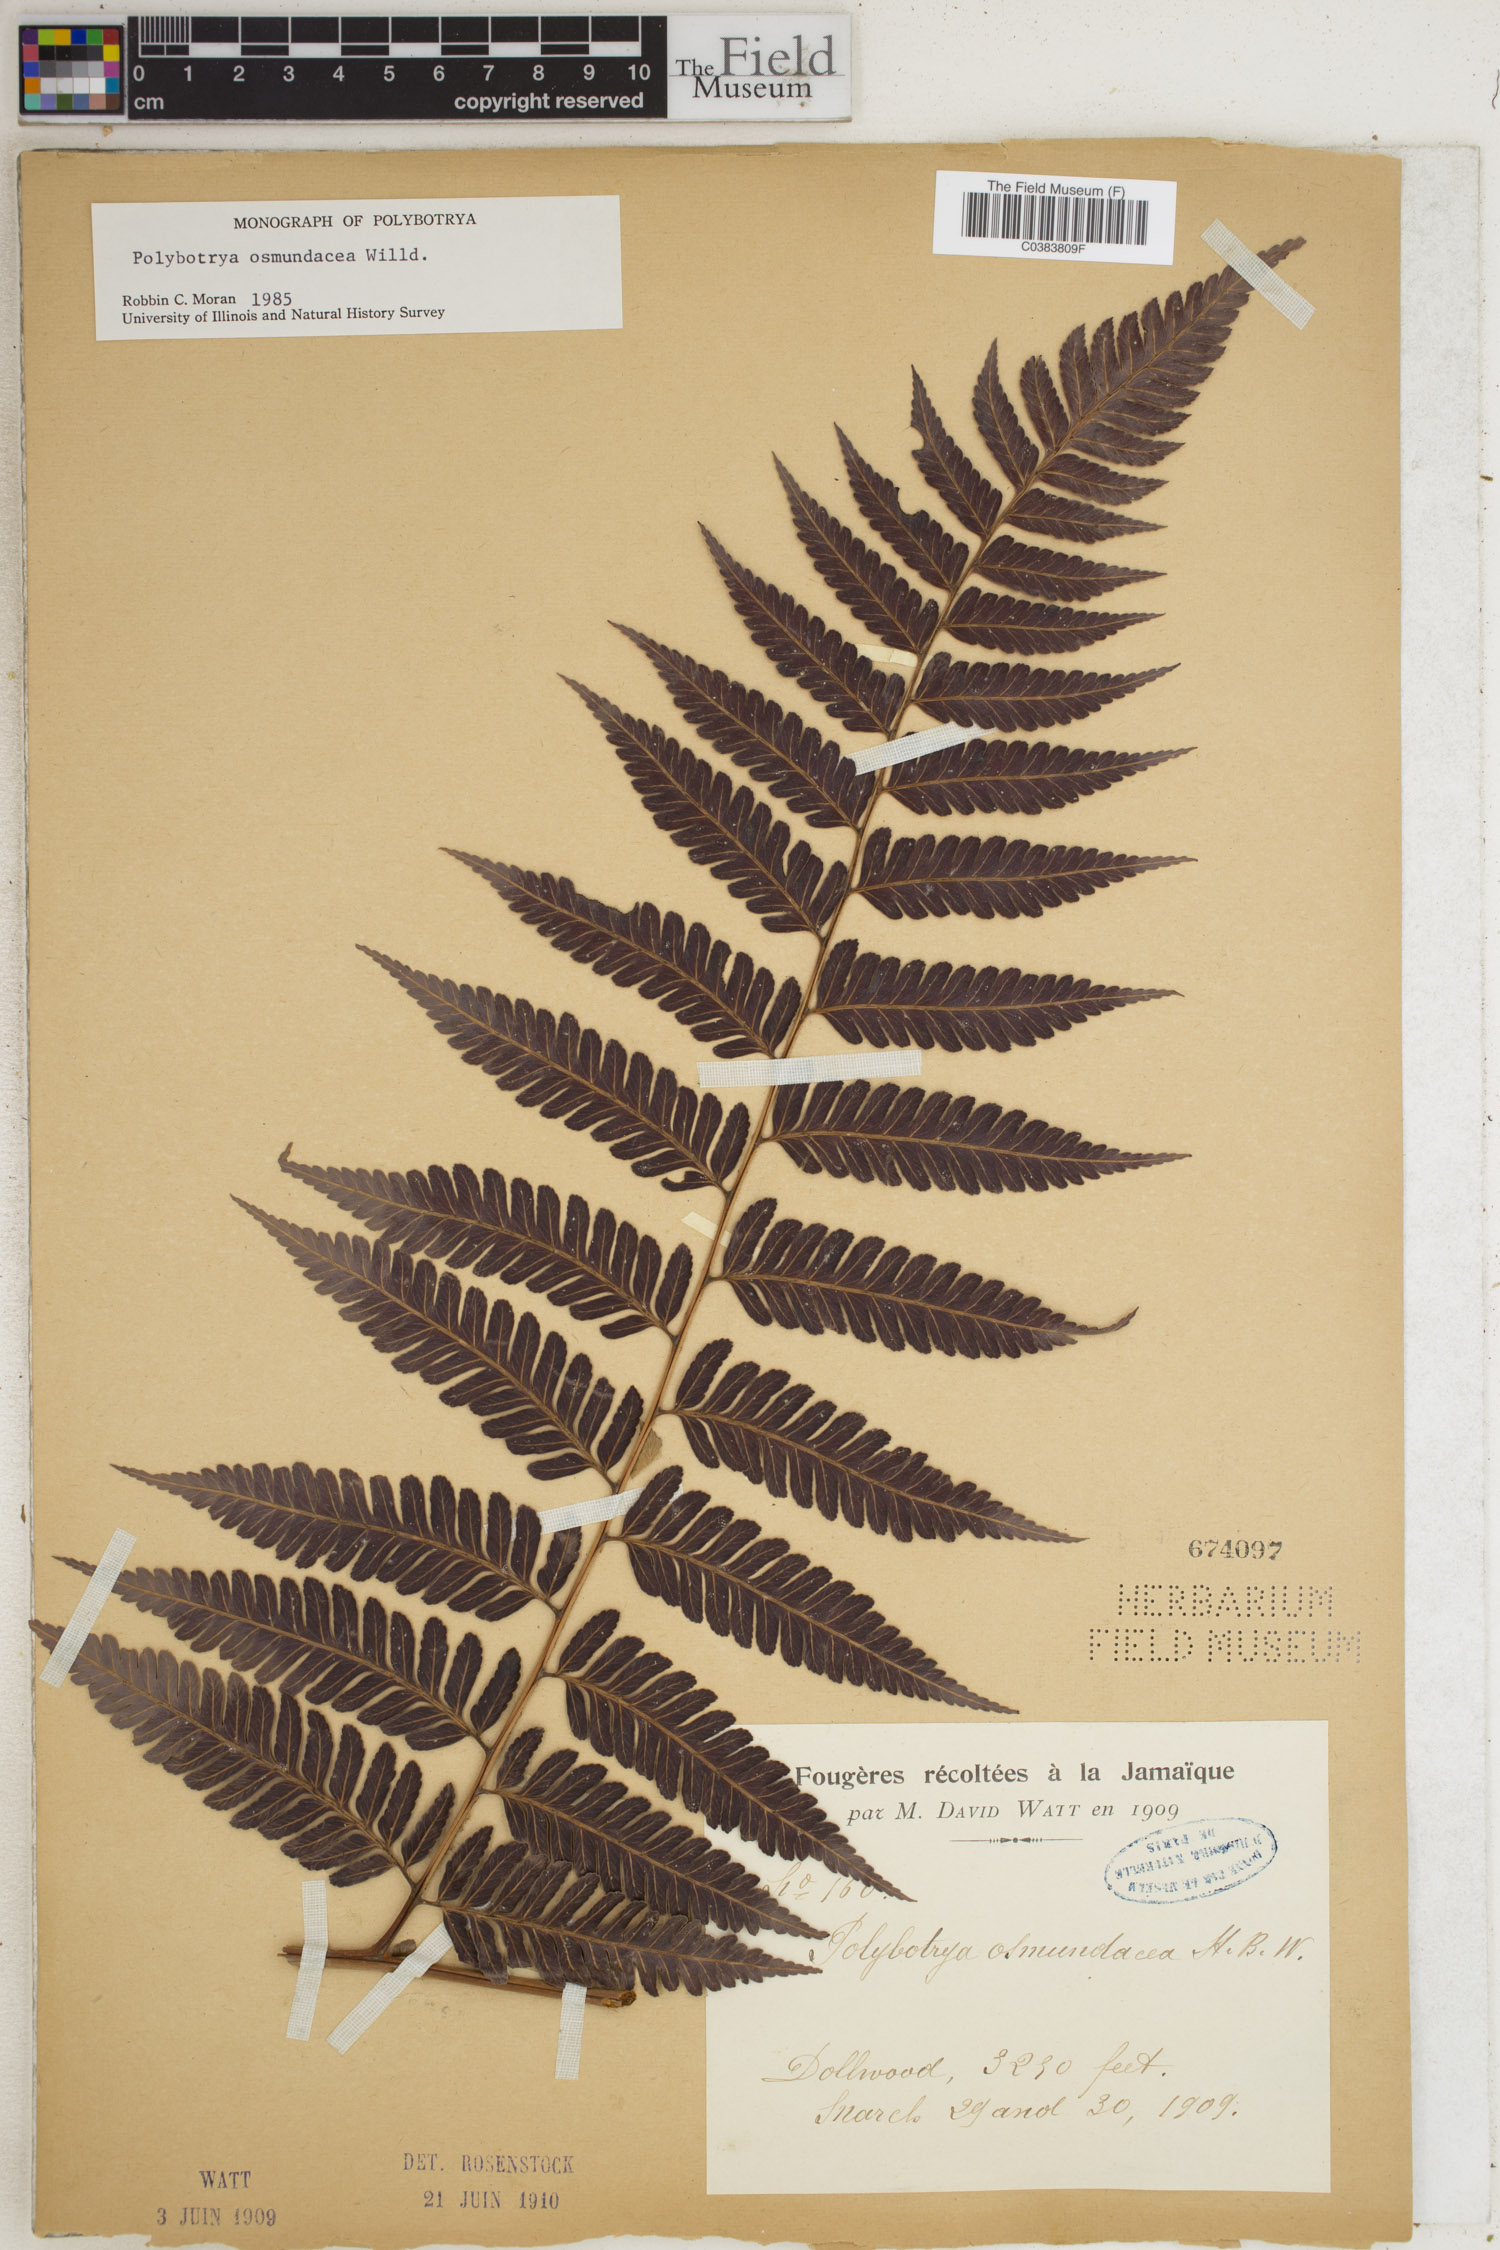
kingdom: Plantae
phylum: Tracheophyta
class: Polypodiopsida
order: Polypodiales
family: Dryopteridaceae
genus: Polybotrya
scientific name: Polybotrya osmundacea
